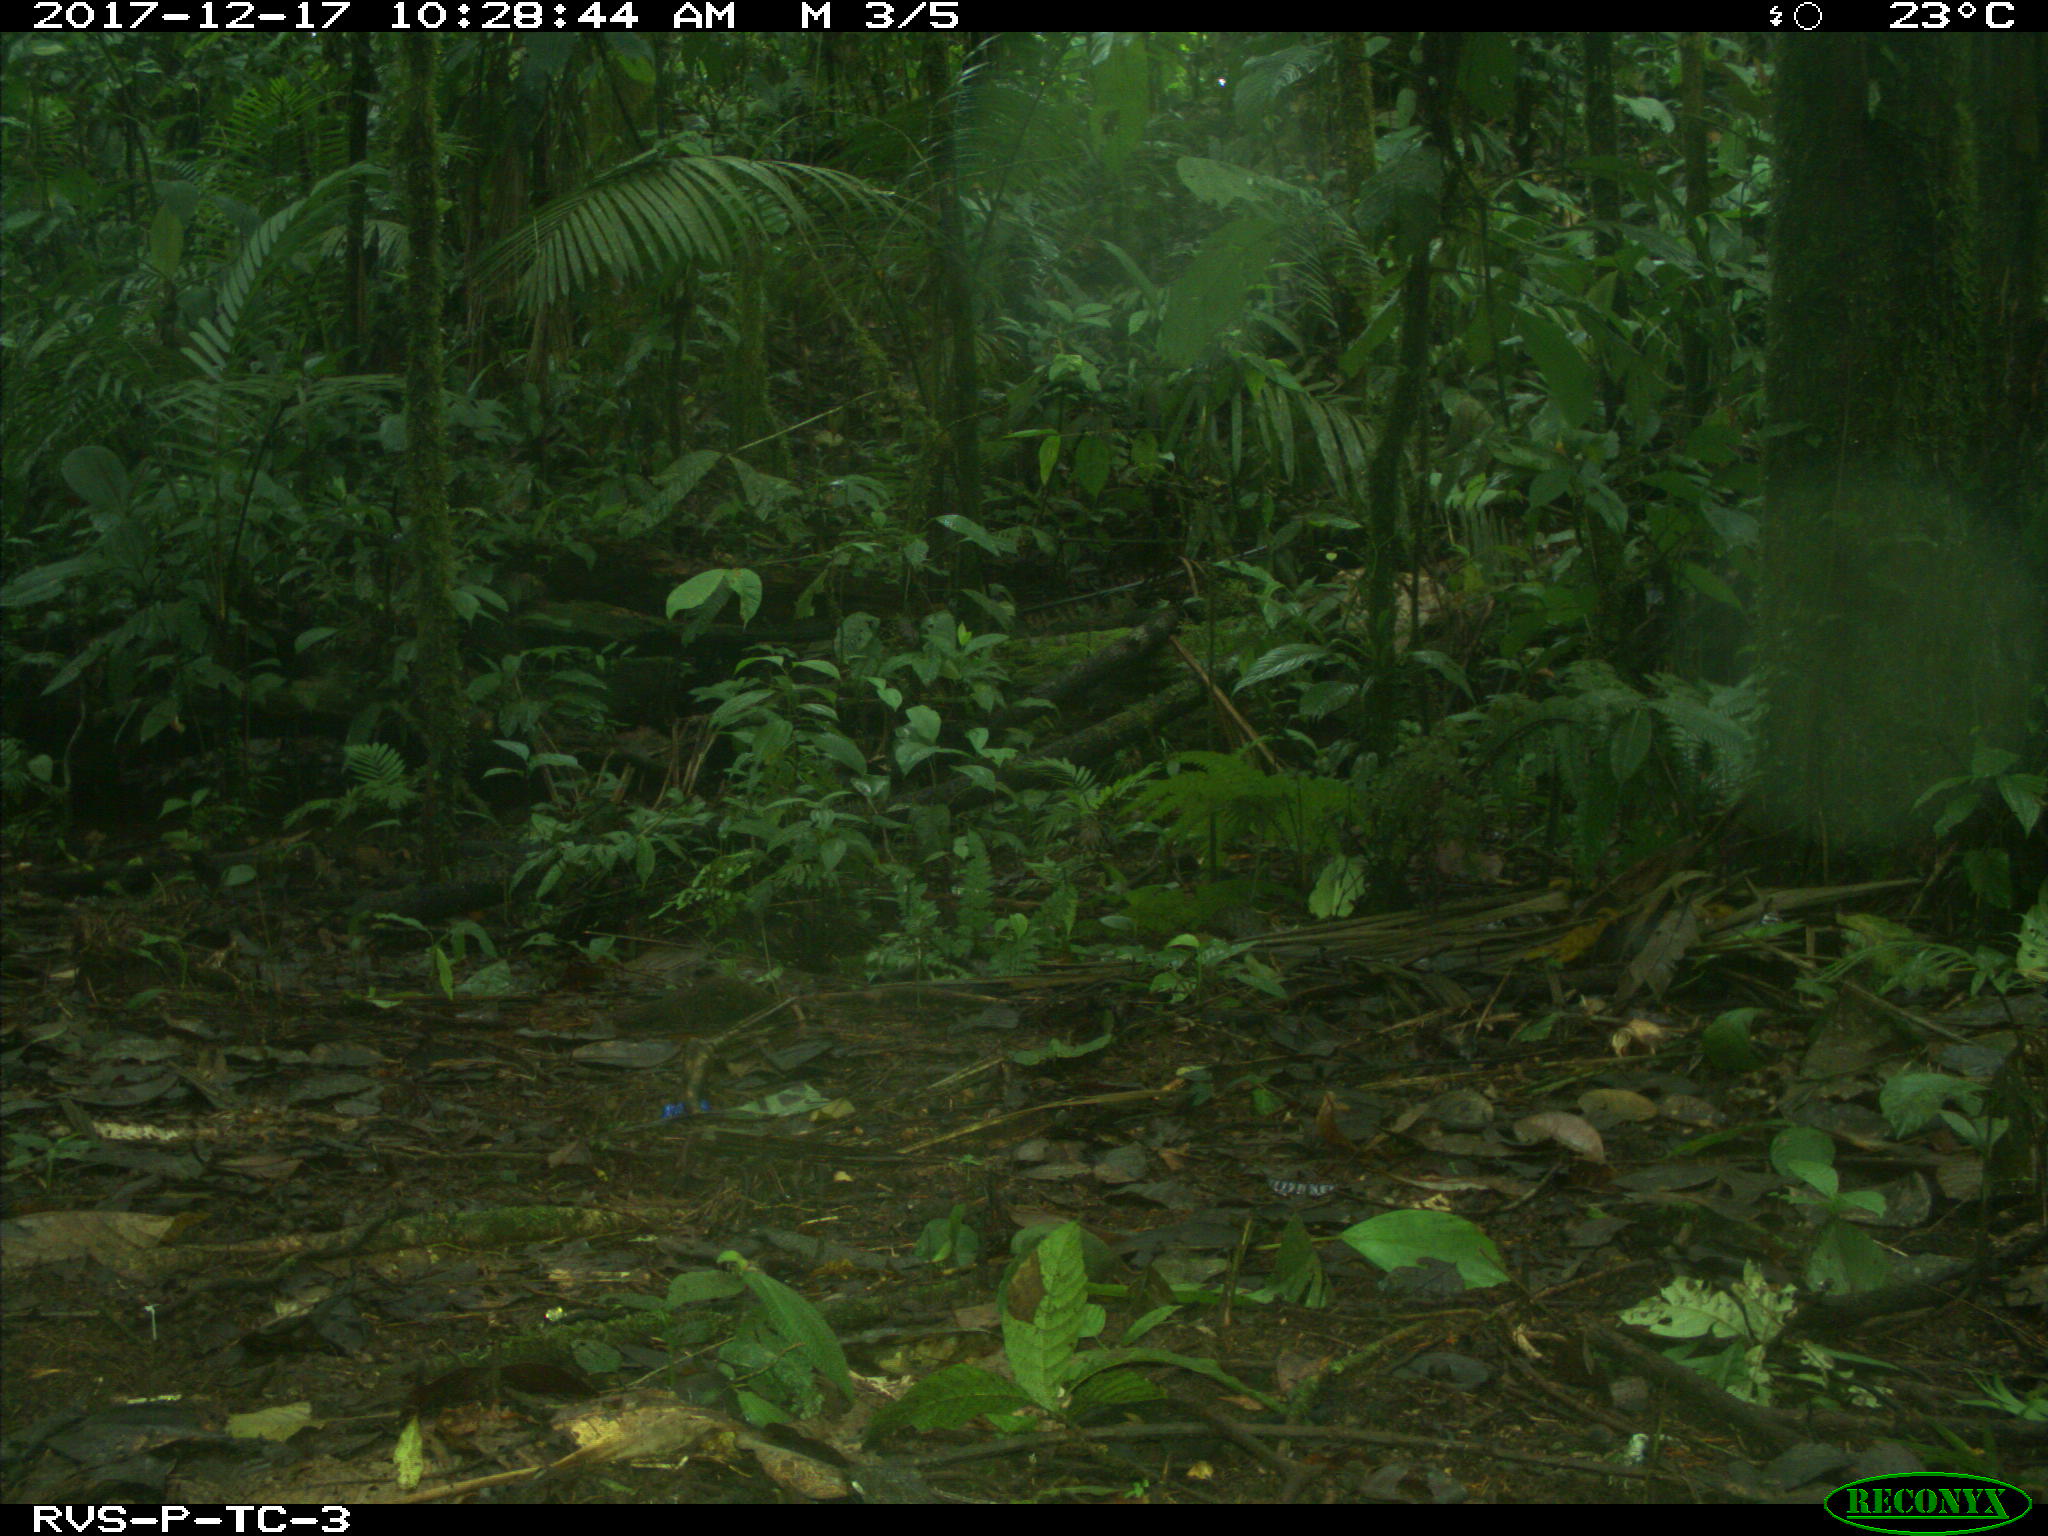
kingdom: Animalia
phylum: Chordata
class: Mammalia
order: Rodentia
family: Dasyproctidae
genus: Dasyprocta
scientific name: Dasyprocta punctata
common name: Central american agouti
